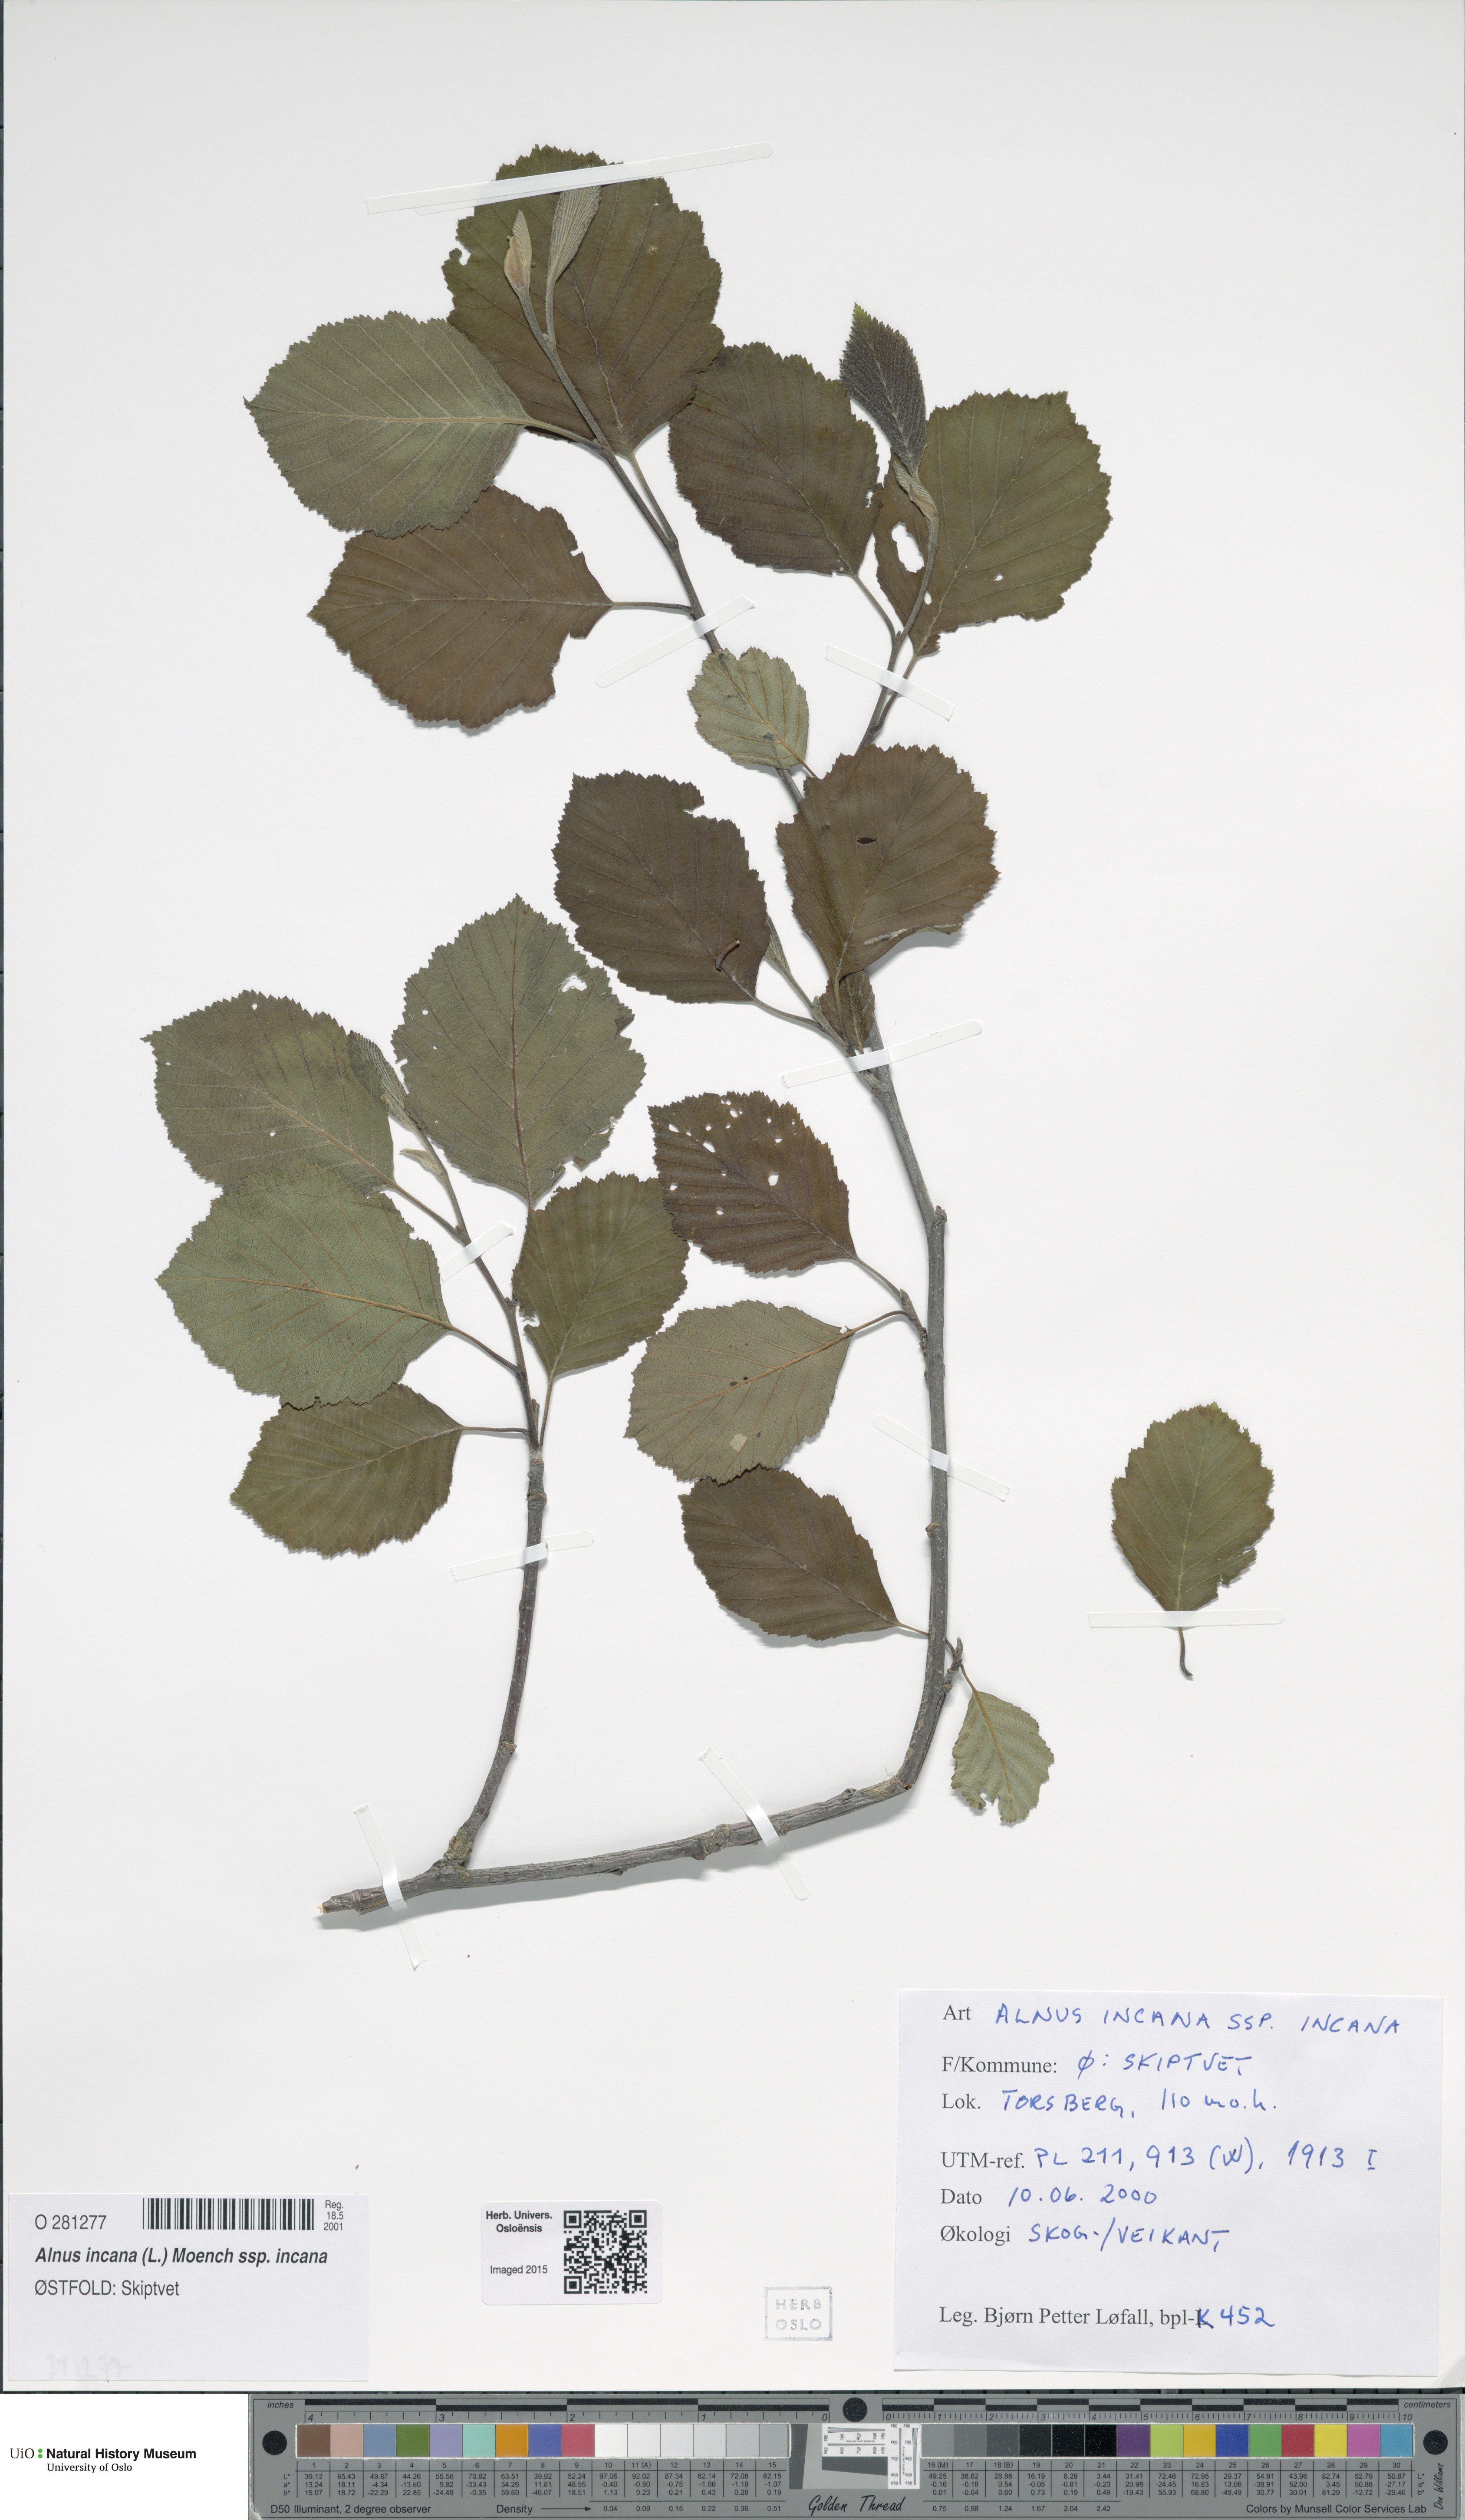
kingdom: Plantae
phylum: Tracheophyta
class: Magnoliopsida
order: Fagales
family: Betulaceae
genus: Alnus
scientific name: Alnus incana
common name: Grey alder
